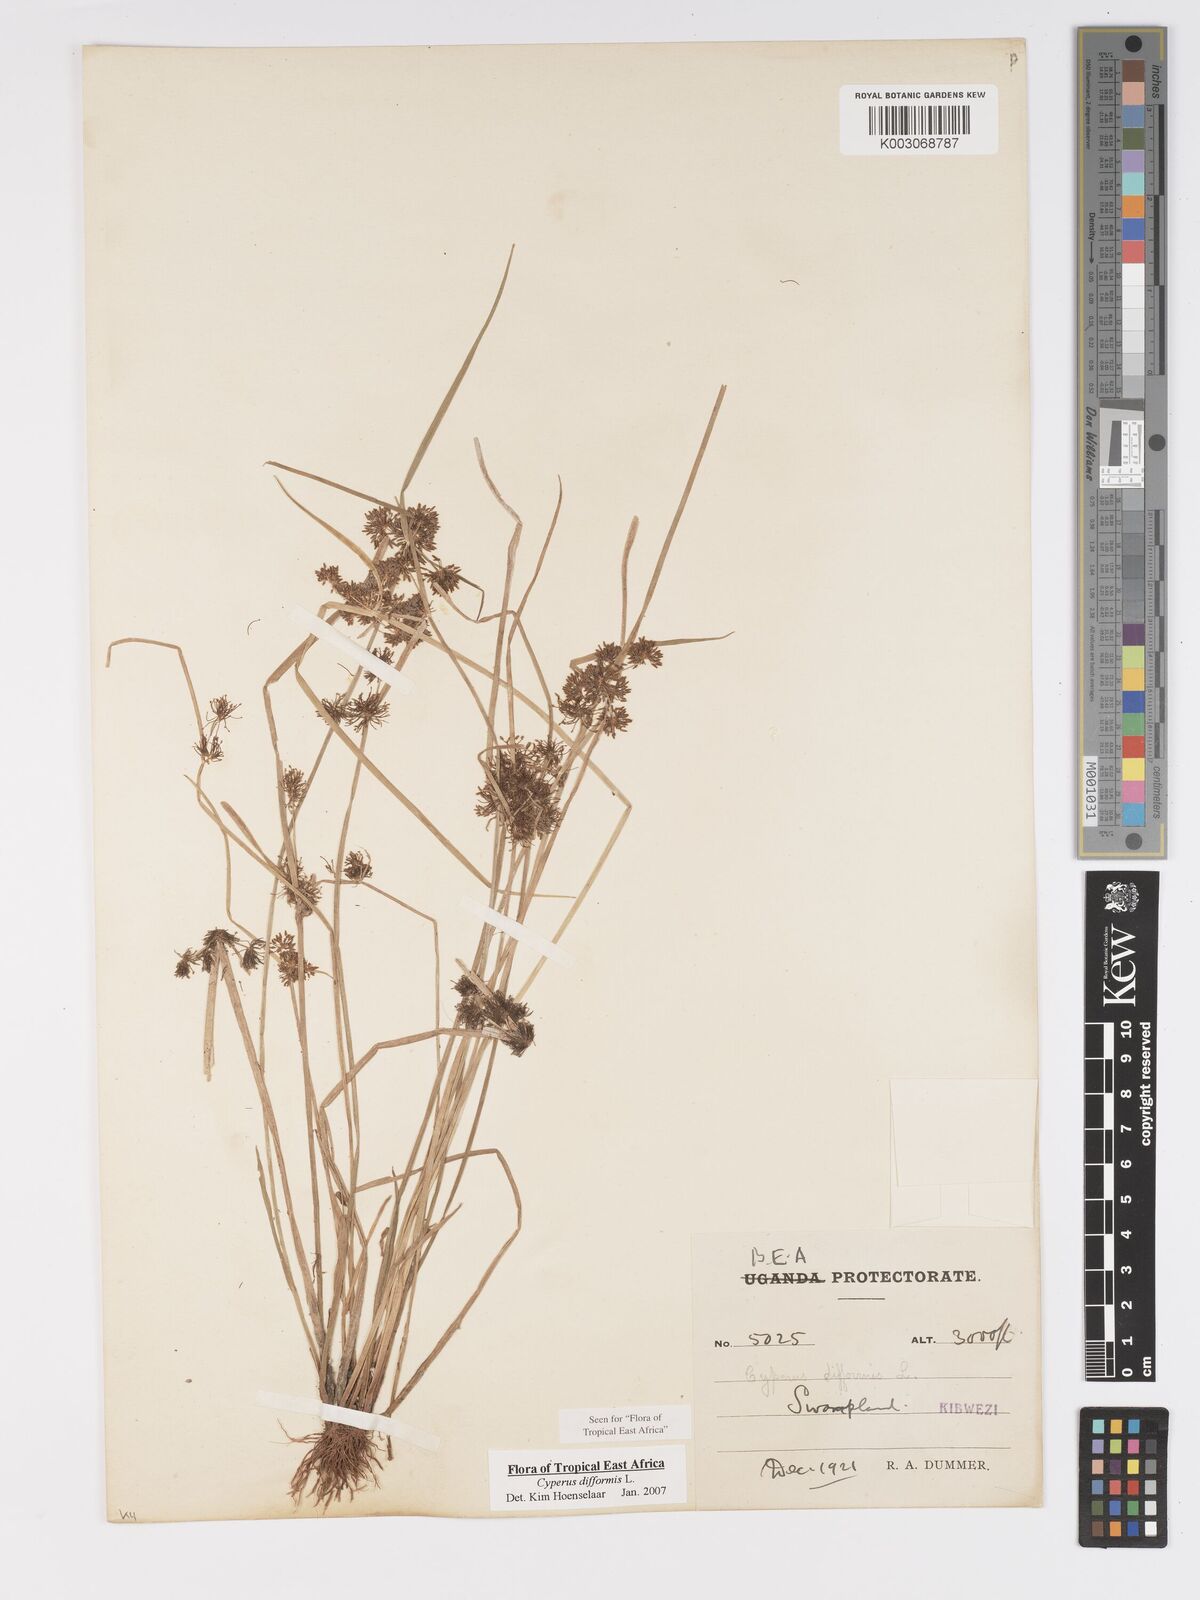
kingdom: Plantae
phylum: Tracheophyta
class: Liliopsida
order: Poales
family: Cyperaceae
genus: Cyperus
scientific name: Cyperus difformis
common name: Variable flatsedge
